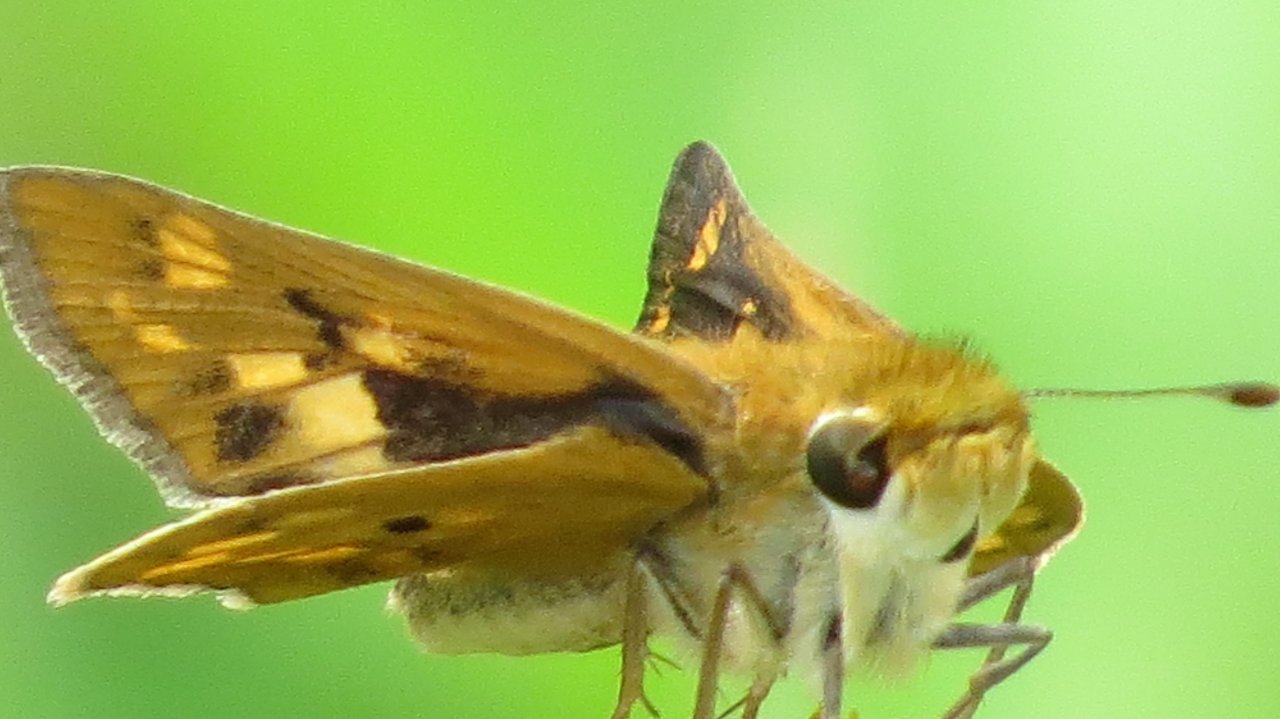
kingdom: Animalia
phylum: Arthropoda
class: Insecta
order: Lepidoptera
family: Hesperiidae
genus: Hylephila
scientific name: Hylephila phyleus
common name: Fiery Skipper
